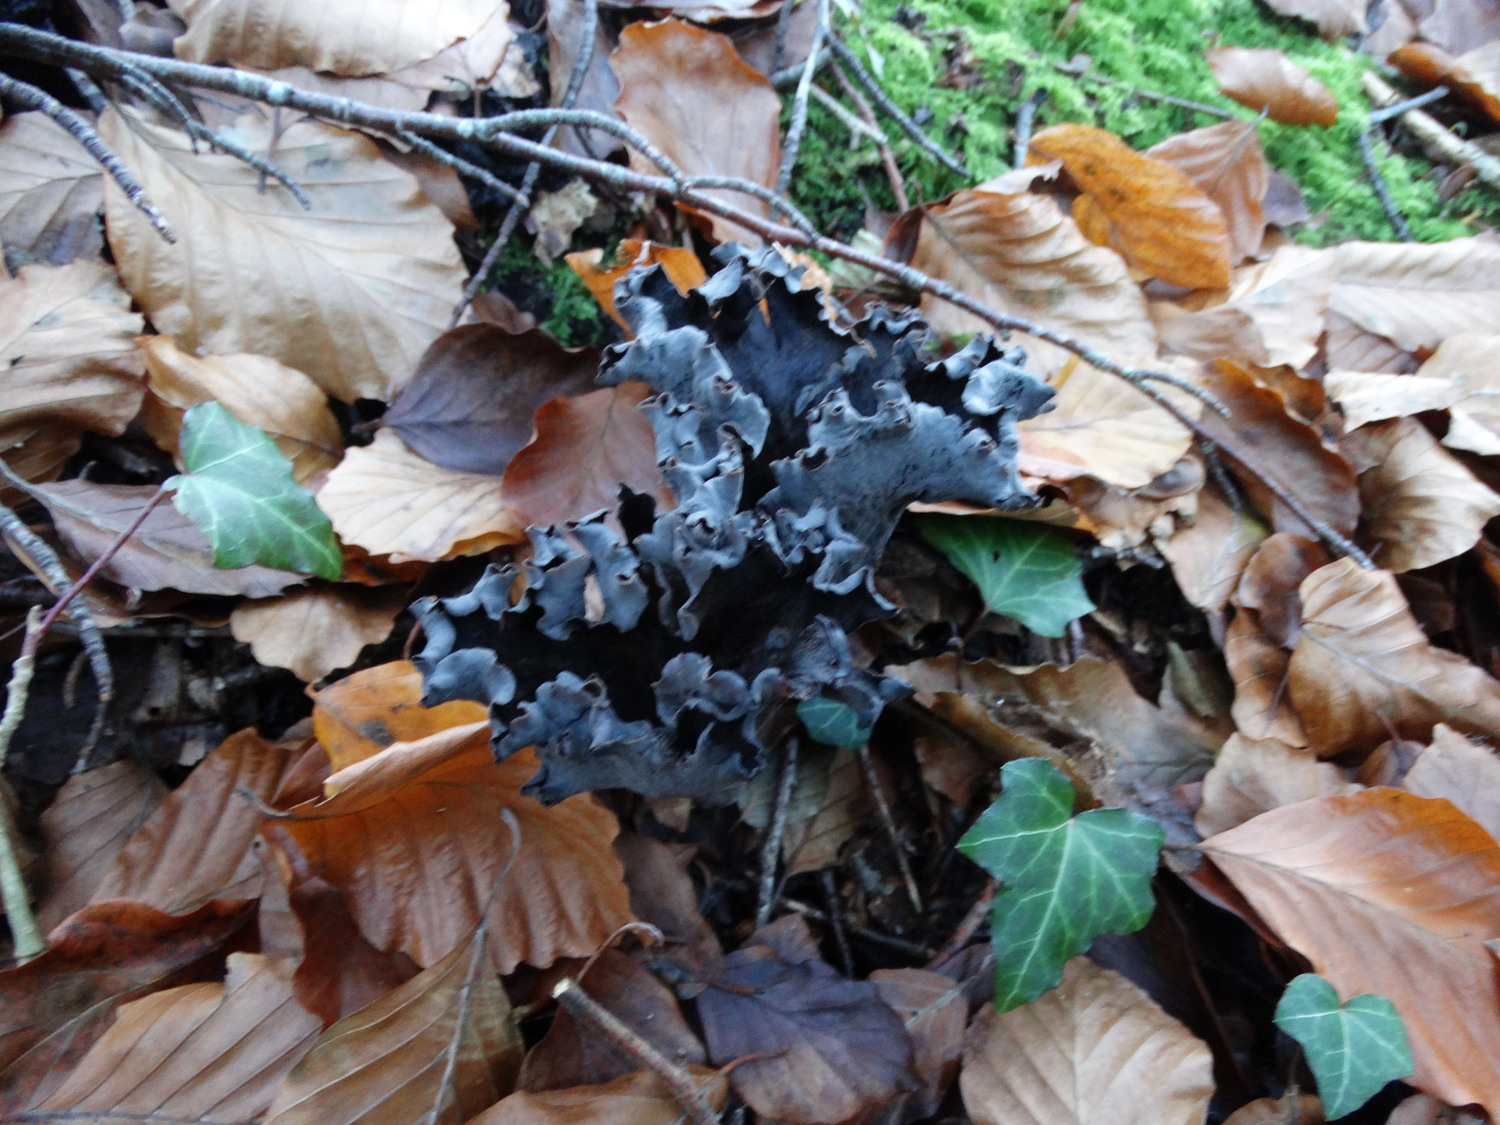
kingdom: Fungi
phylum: Basidiomycota
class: Agaricomycetes
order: Cantharellales
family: Hydnaceae
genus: Craterellus
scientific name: Craterellus cornucopioides
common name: trompetsvamp
